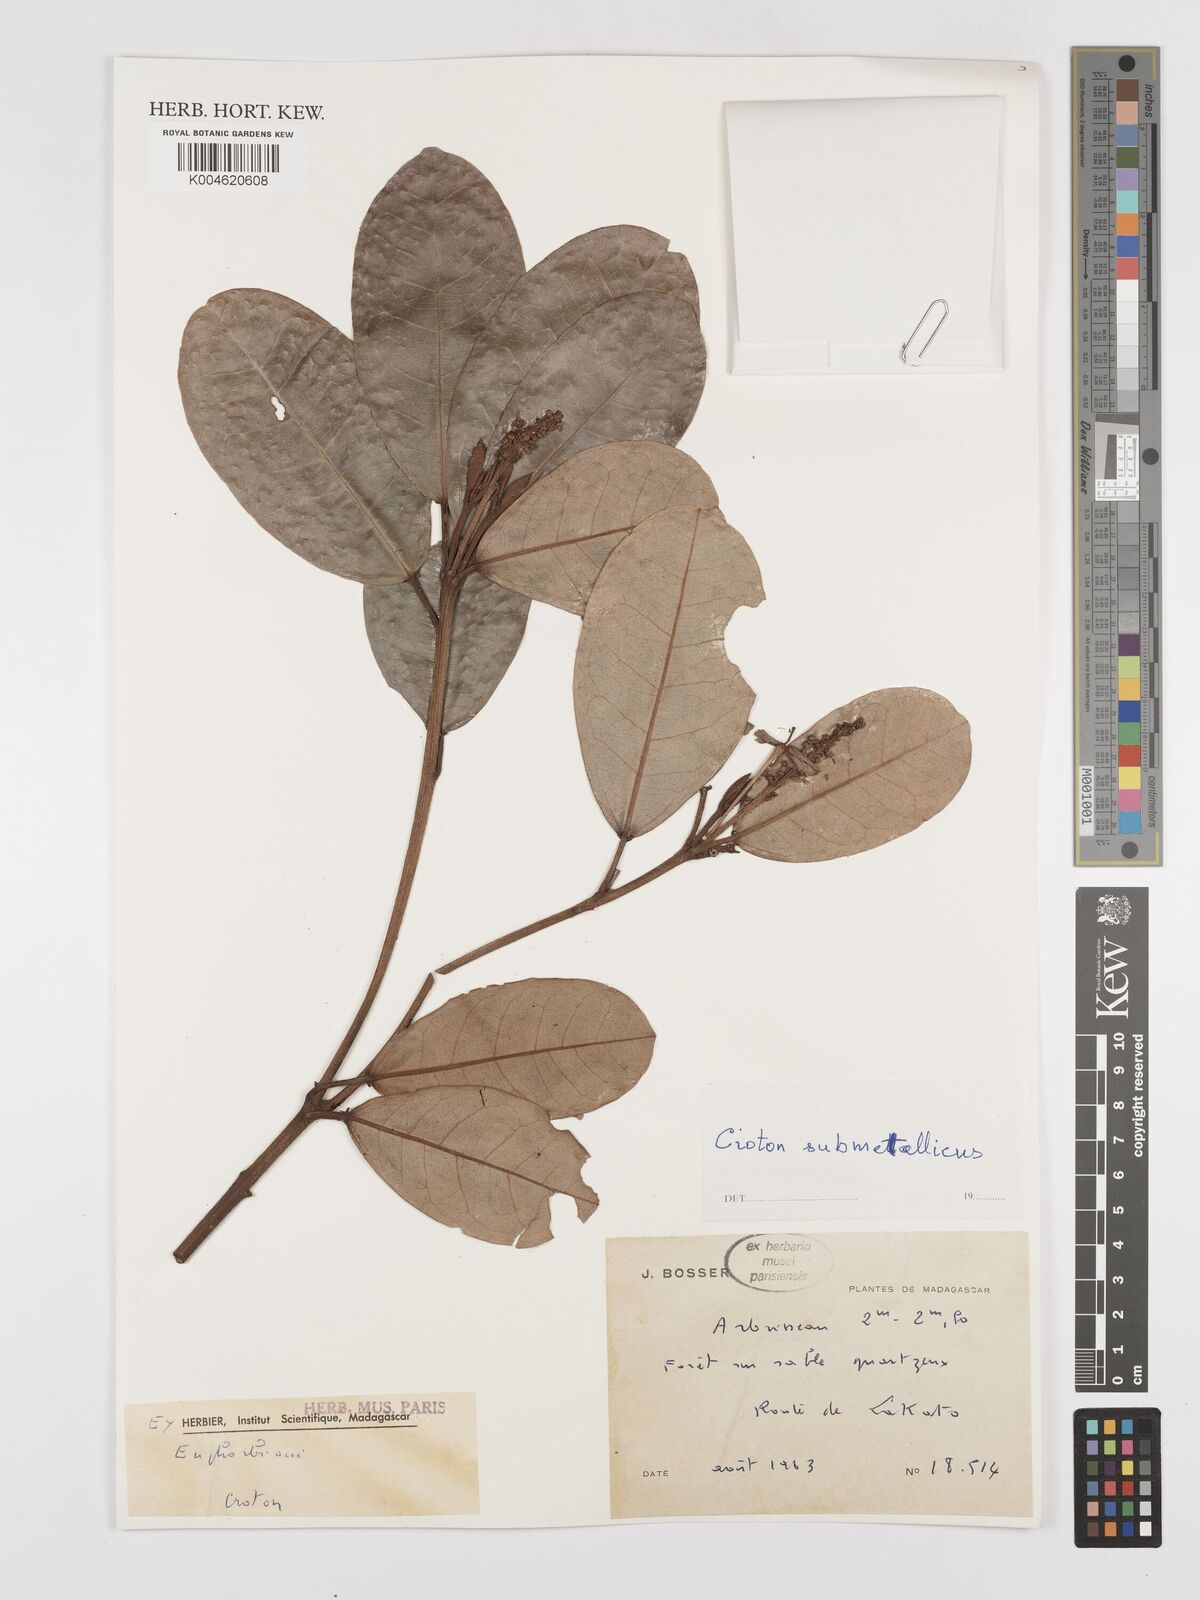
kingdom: Plantae
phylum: Tracheophyta
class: Magnoliopsida
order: Malpighiales
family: Euphorbiaceae
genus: Croton
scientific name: Croton submetallicus
